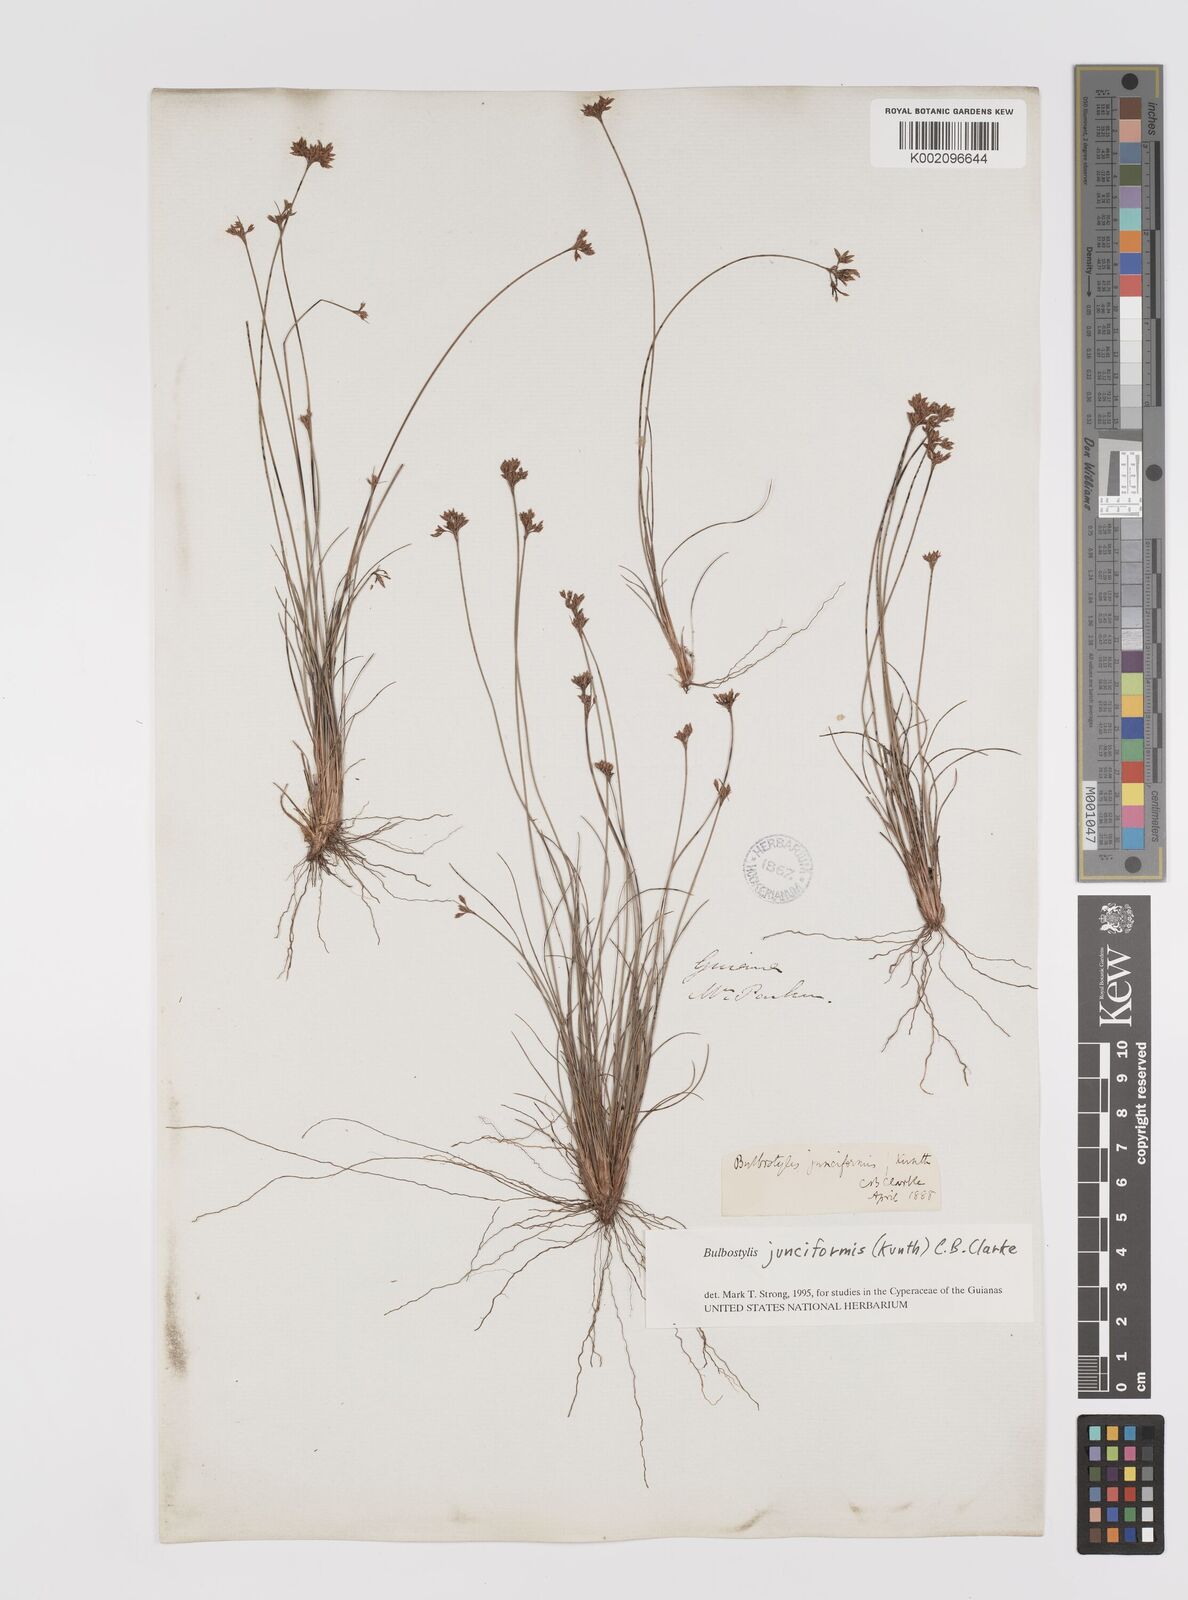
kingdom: Plantae
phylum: Tracheophyta
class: Liliopsida
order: Poales
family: Cyperaceae
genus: Bulbostylis
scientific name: Bulbostylis junciformis
